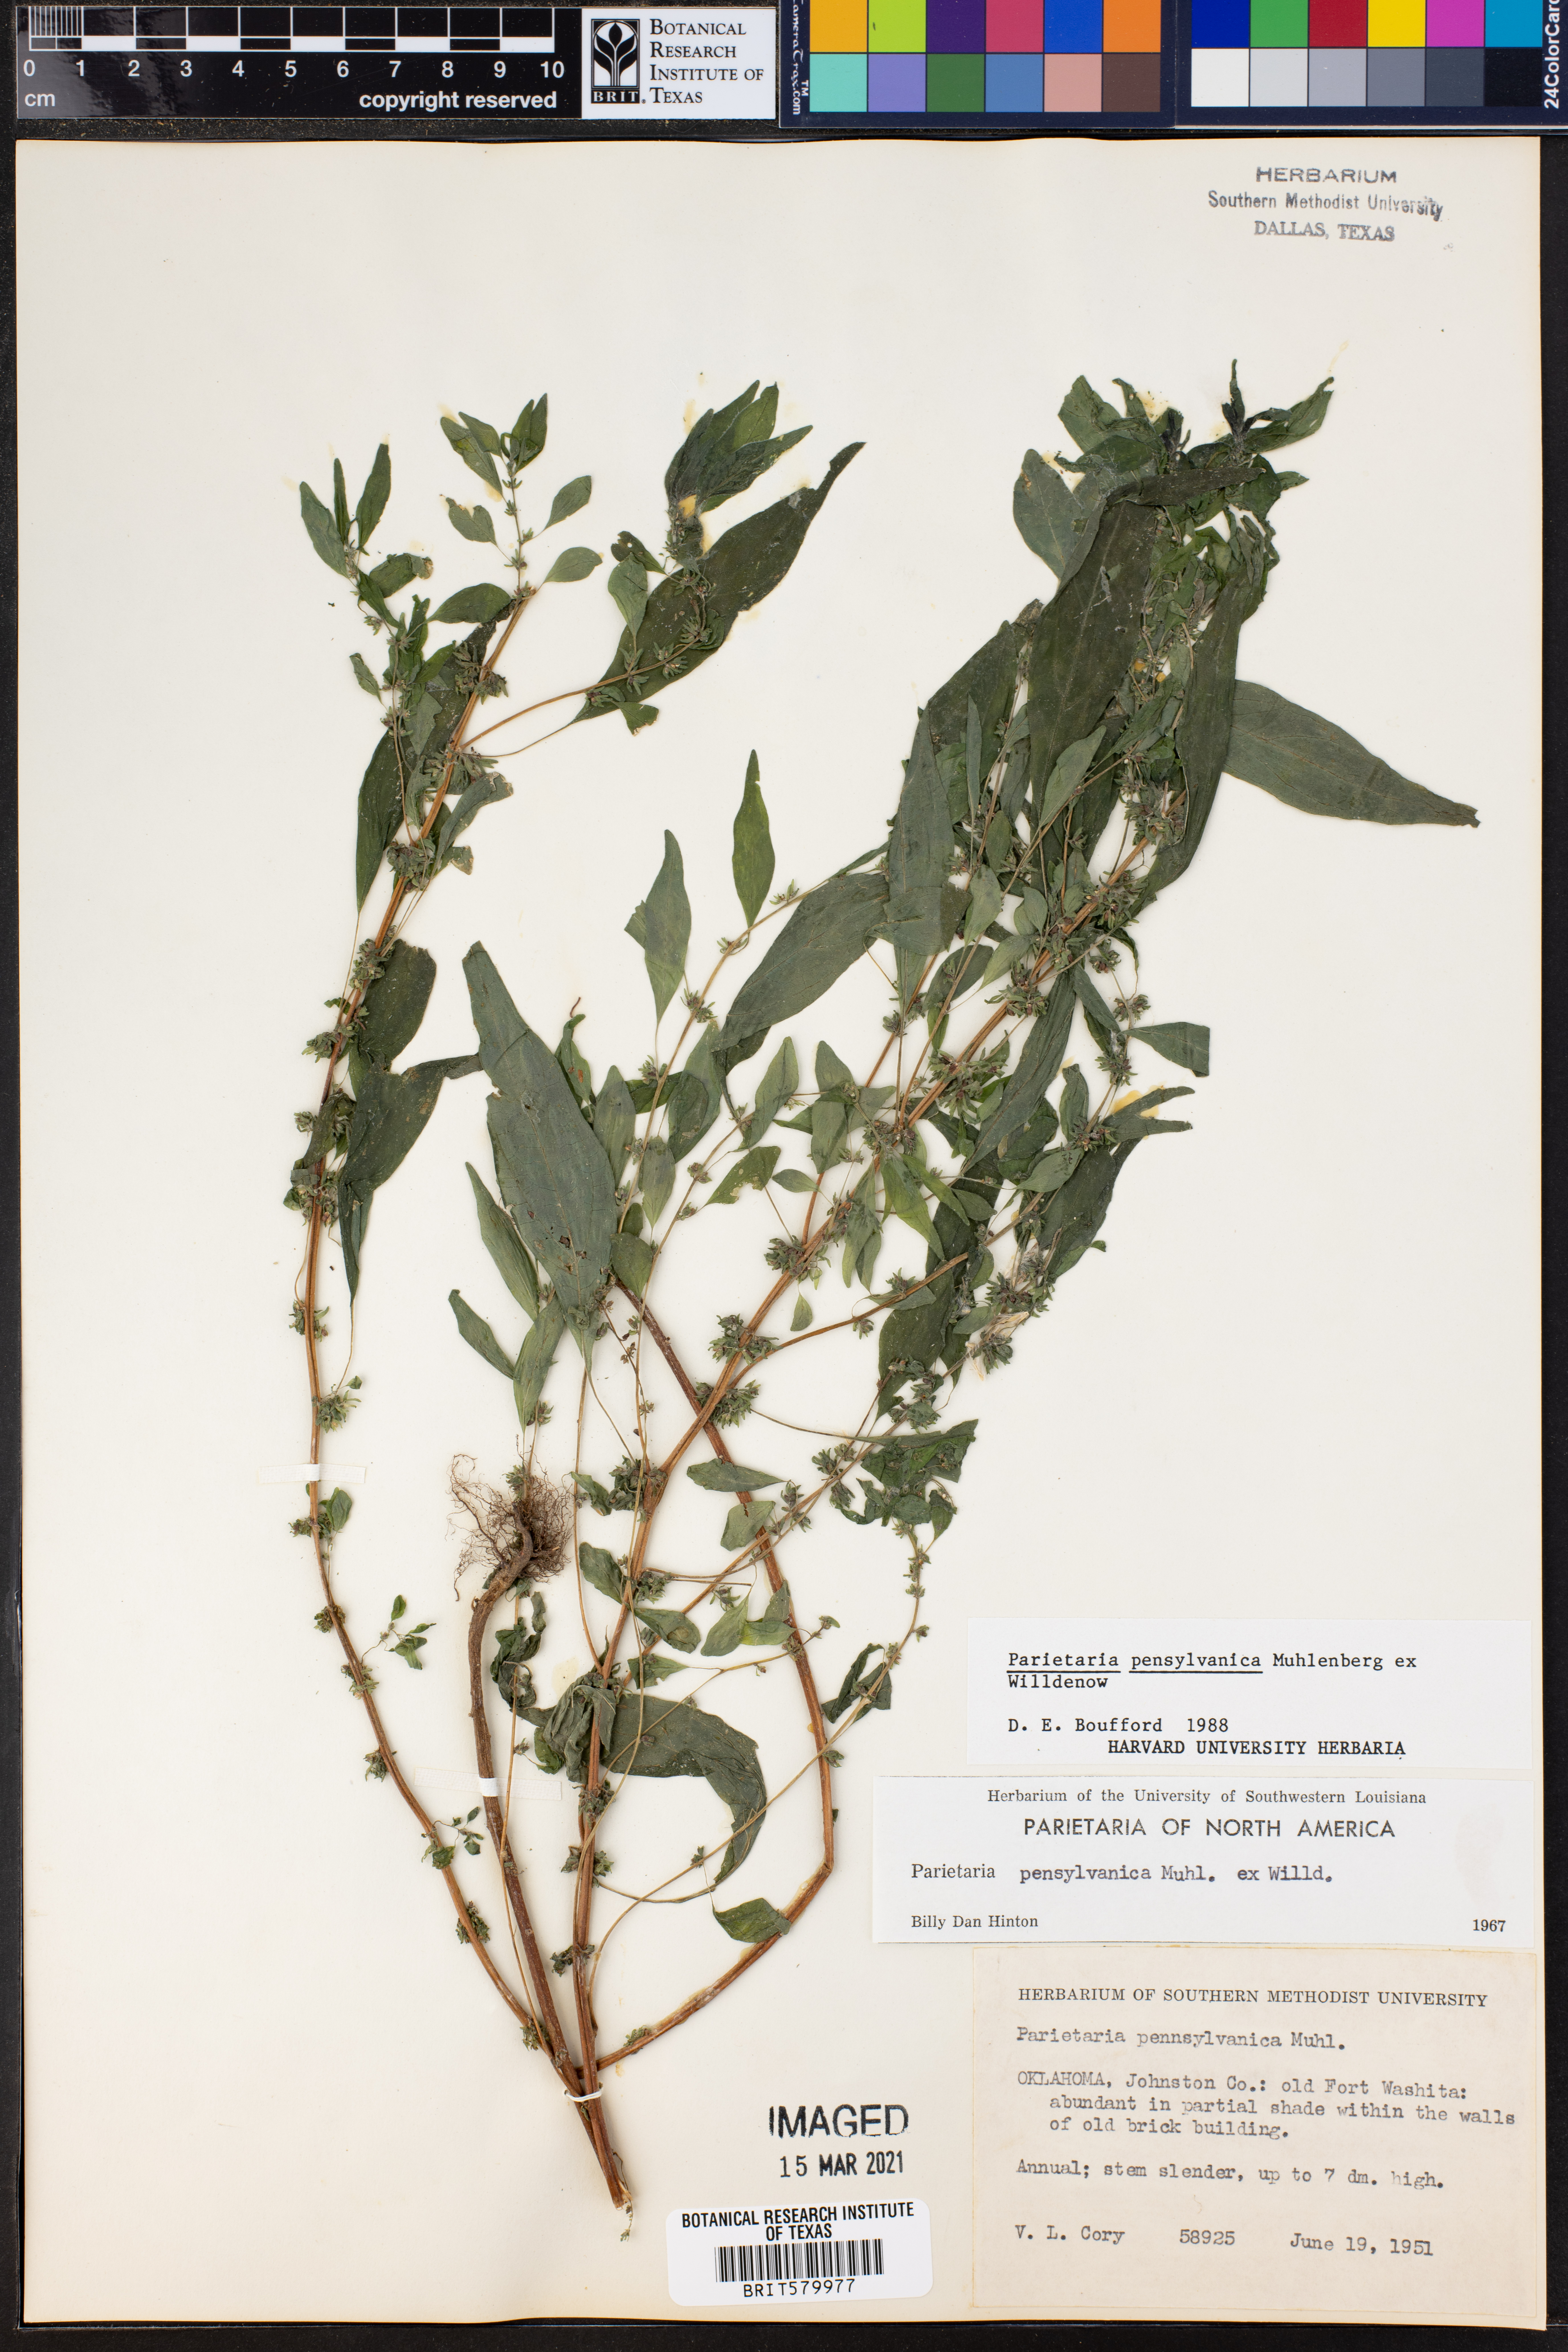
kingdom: Plantae
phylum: Tracheophyta
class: Magnoliopsida
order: Rosales
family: Urticaceae
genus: Parietaria
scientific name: Parietaria pensylvanica
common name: Pennsylvania pellitory
